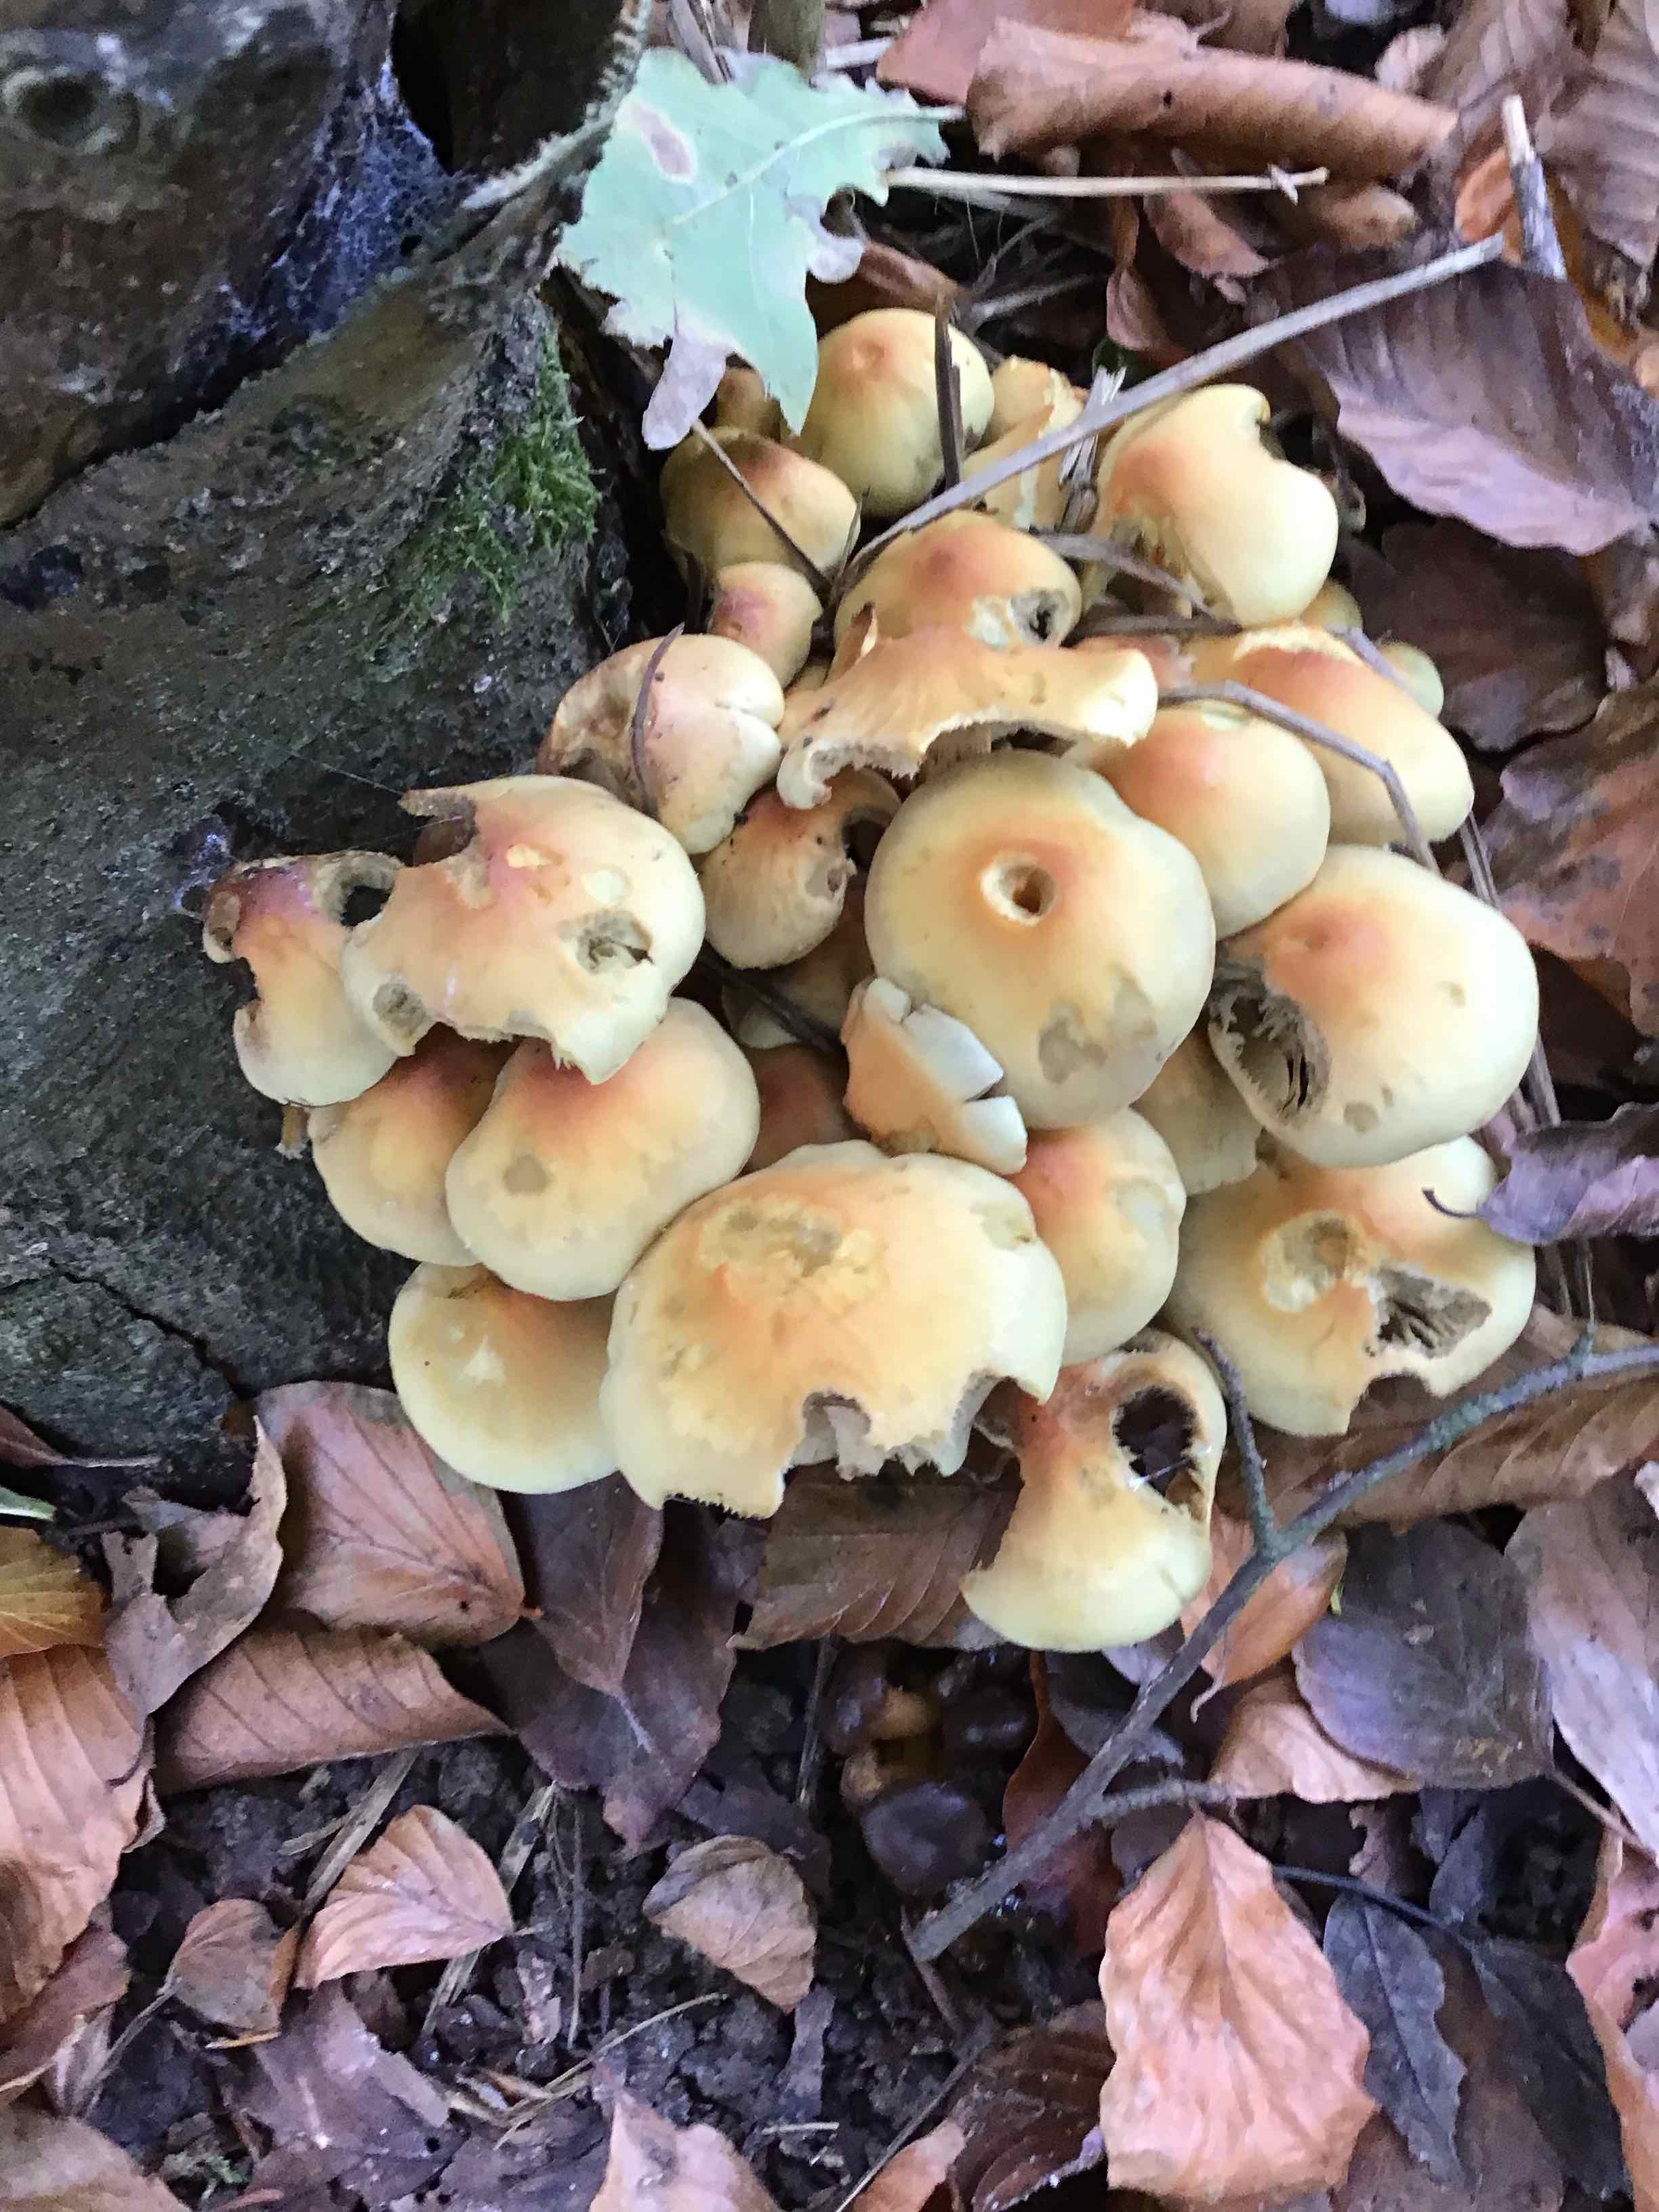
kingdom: Fungi
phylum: Basidiomycota
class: Agaricomycetes
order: Agaricales
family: Strophariaceae
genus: Hypholoma
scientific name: Hypholoma fasciculare
